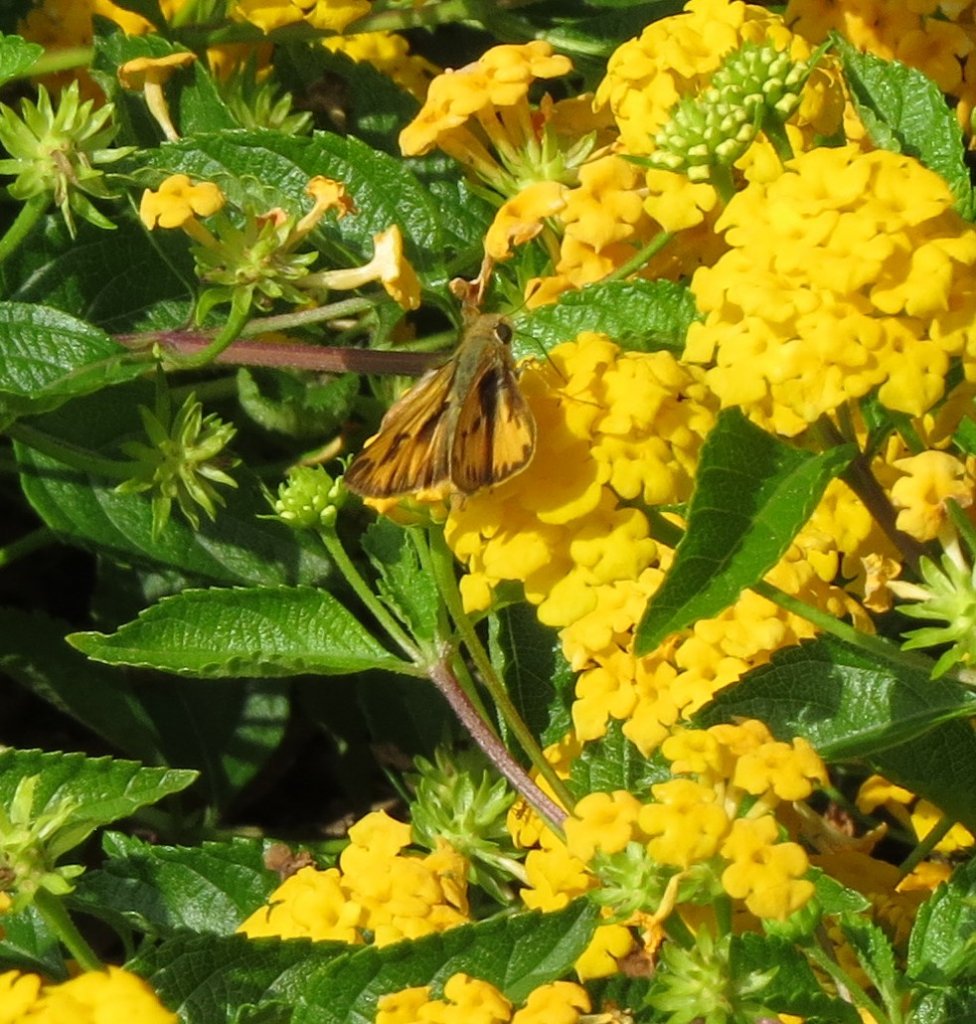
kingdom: Animalia
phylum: Arthropoda
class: Insecta
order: Lepidoptera
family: Hesperiidae
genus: Hylephila
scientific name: Hylephila phyleus
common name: Fiery Skipper
